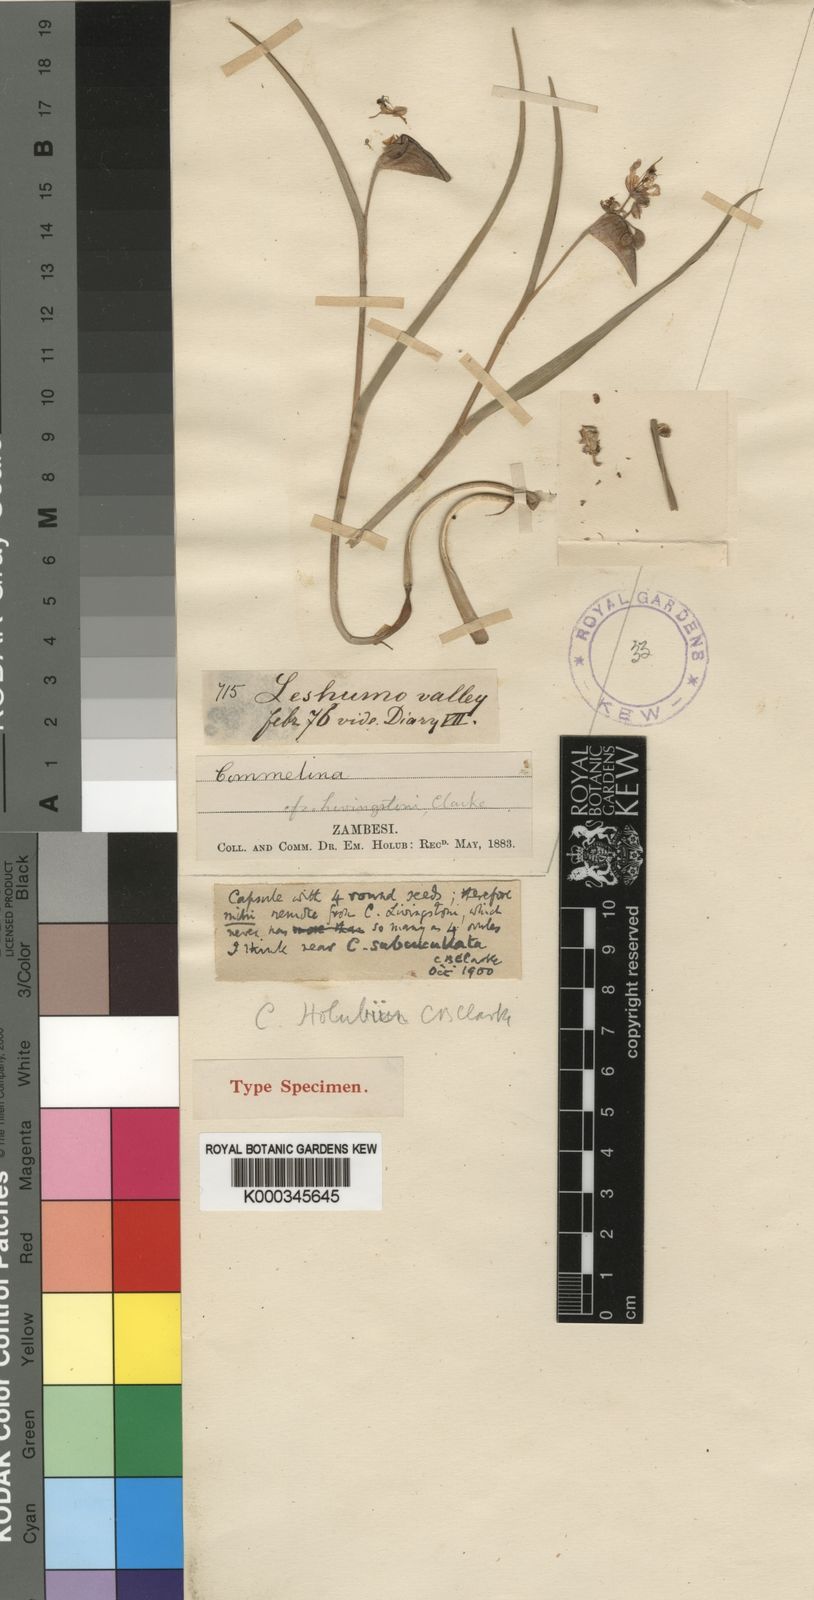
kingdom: Plantae
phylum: Tracheophyta
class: Liliopsida
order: Commelinales
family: Commelinaceae
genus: Commelina
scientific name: Commelina holubii
